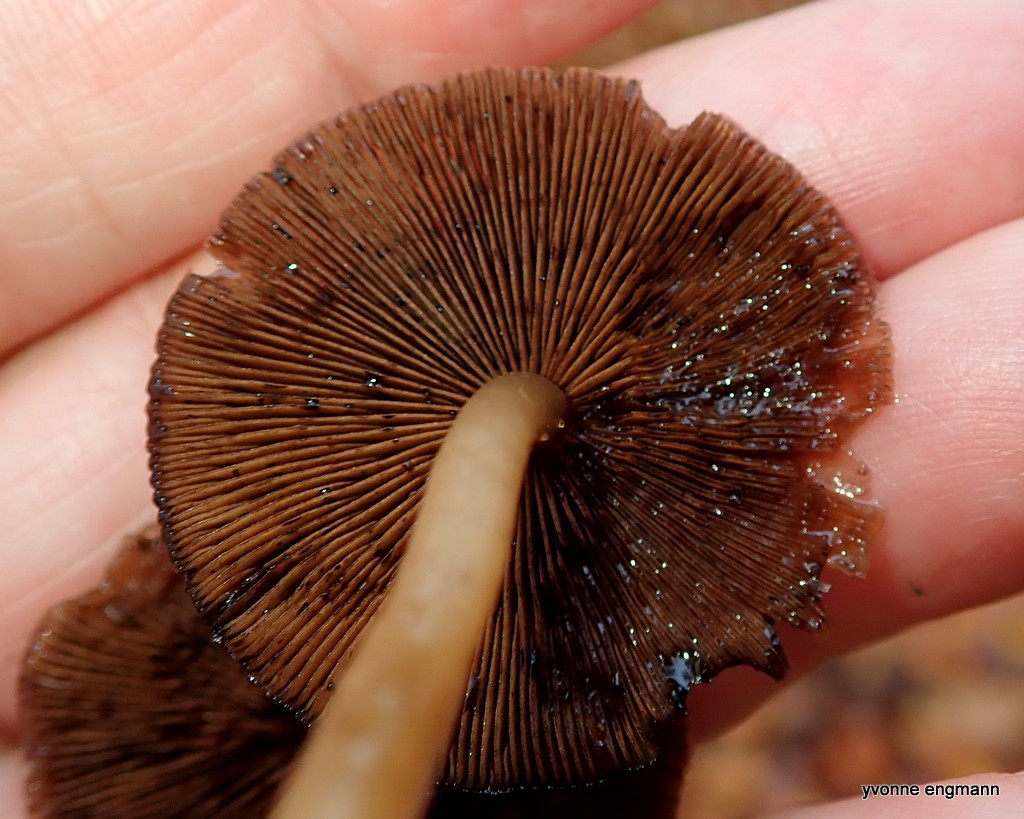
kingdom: Fungi
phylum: Basidiomycota
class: Agaricomycetes
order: Agaricales
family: Psathyrellaceae
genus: Psathyrella
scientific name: Psathyrella piluliformis
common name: lysstokket mørkhat
